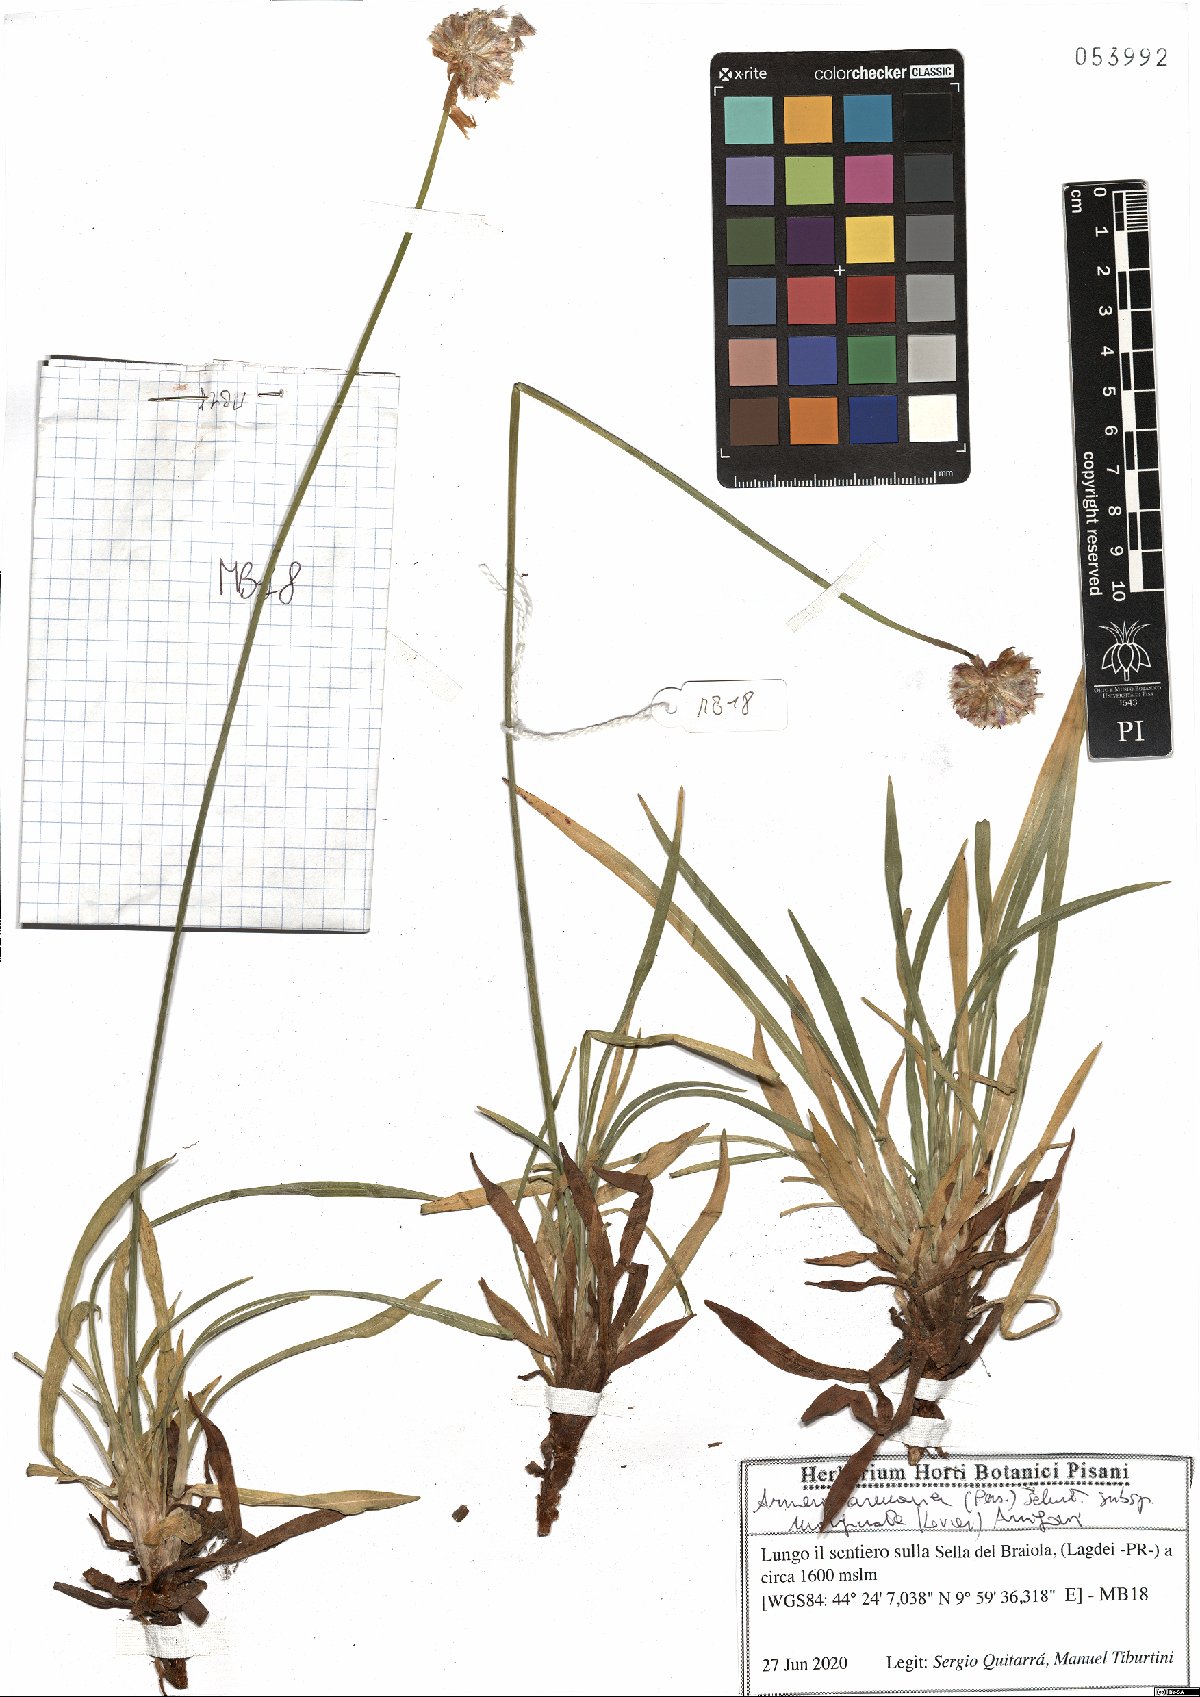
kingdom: Plantae
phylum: Tracheophyta
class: Magnoliopsida
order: Caryophyllales
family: Plumbaginaceae
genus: Armeria
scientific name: Armeria arenaria
